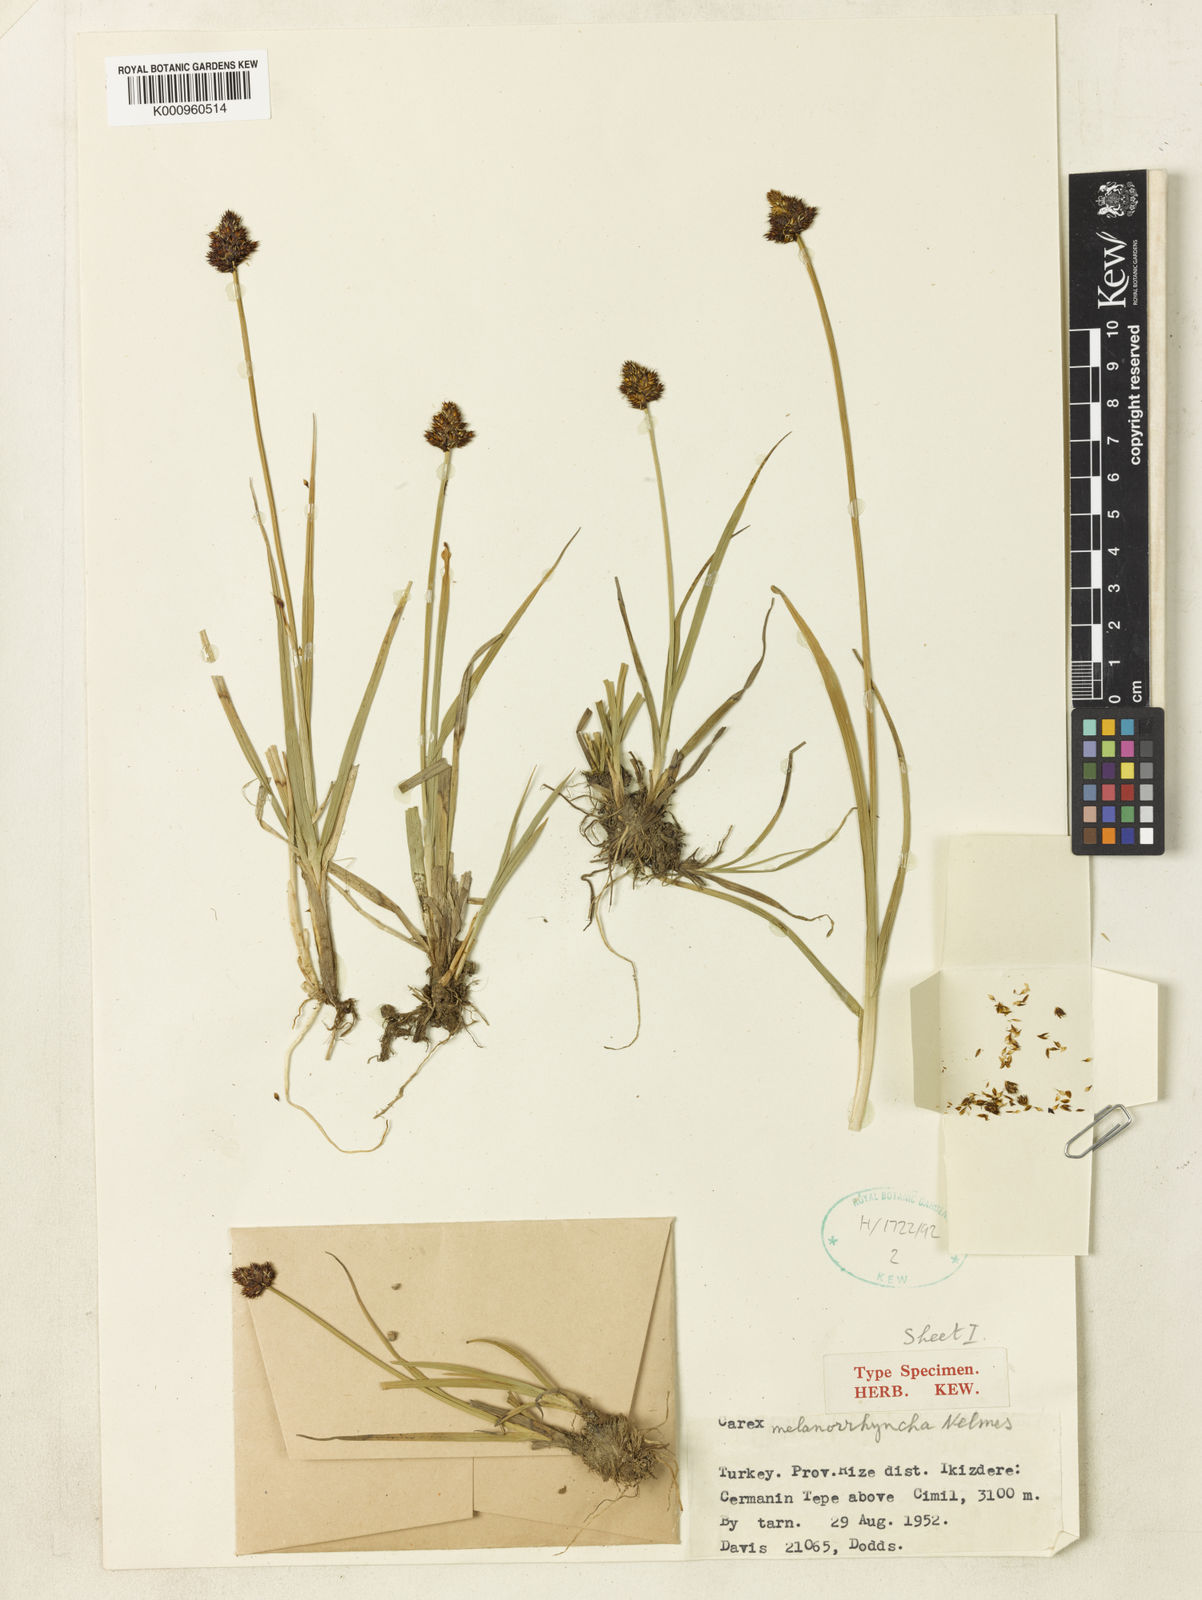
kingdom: Plantae
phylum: Tracheophyta
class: Liliopsida
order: Poales
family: Cyperaceae
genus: Carex
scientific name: Carex melanorrhyncha
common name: Astragal radde
